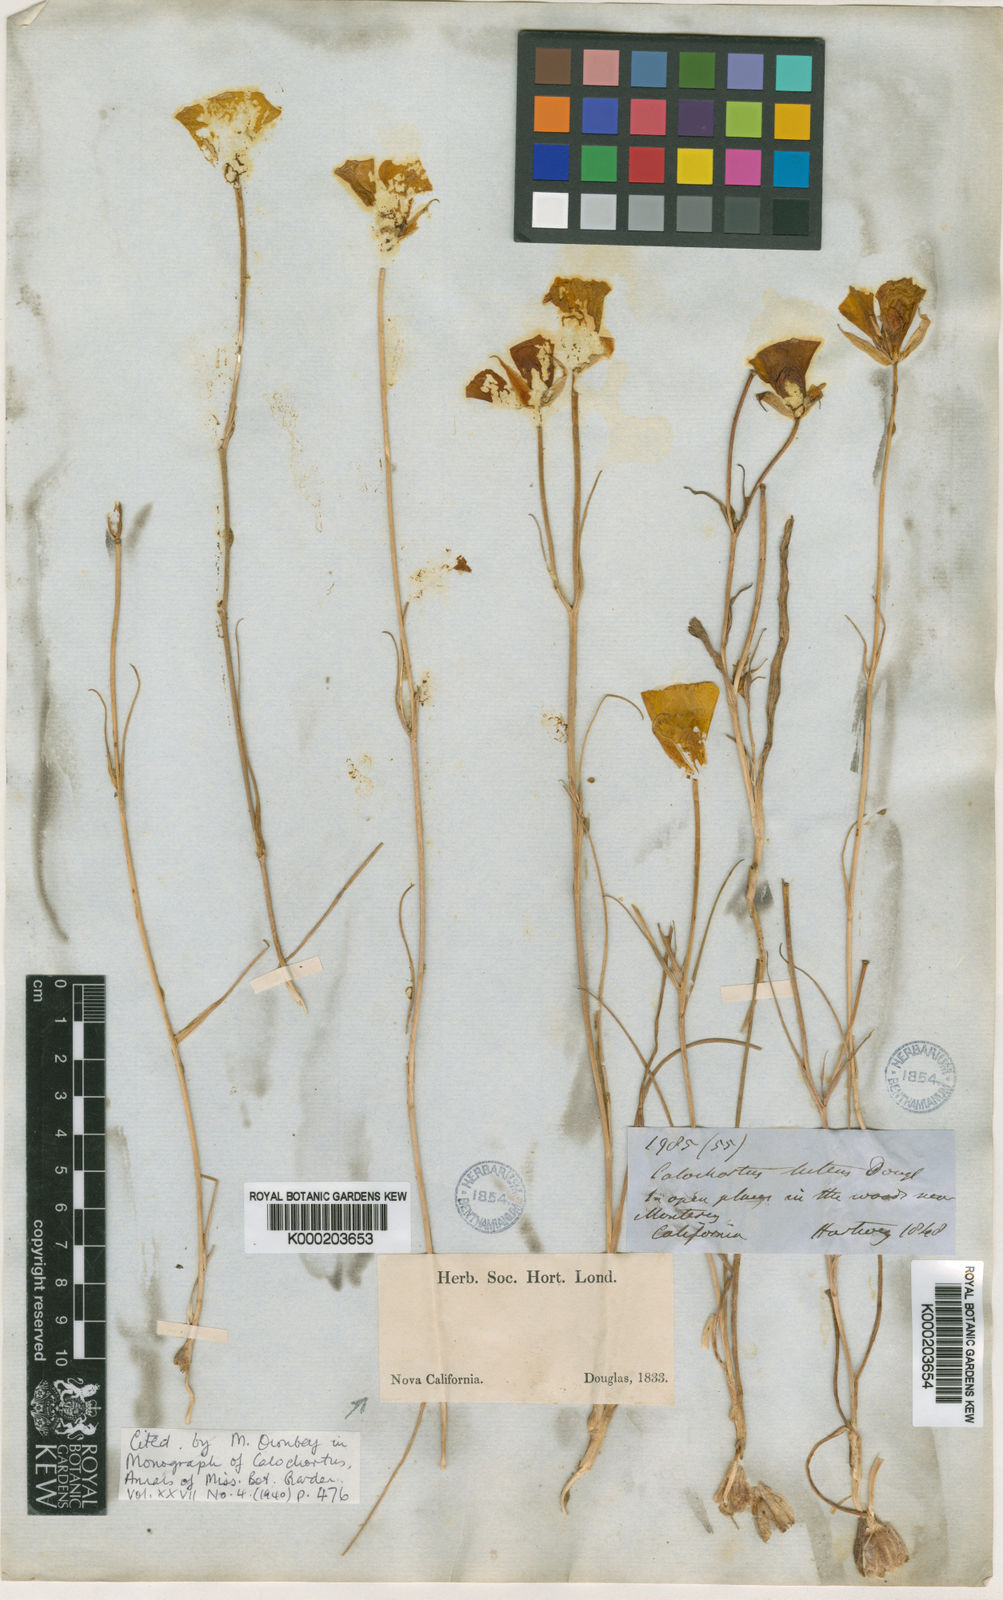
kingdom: Plantae
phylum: Tracheophyta
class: Liliopsida
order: Liliales
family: Liliaceae
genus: Calochortus
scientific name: Calochortus luteus
